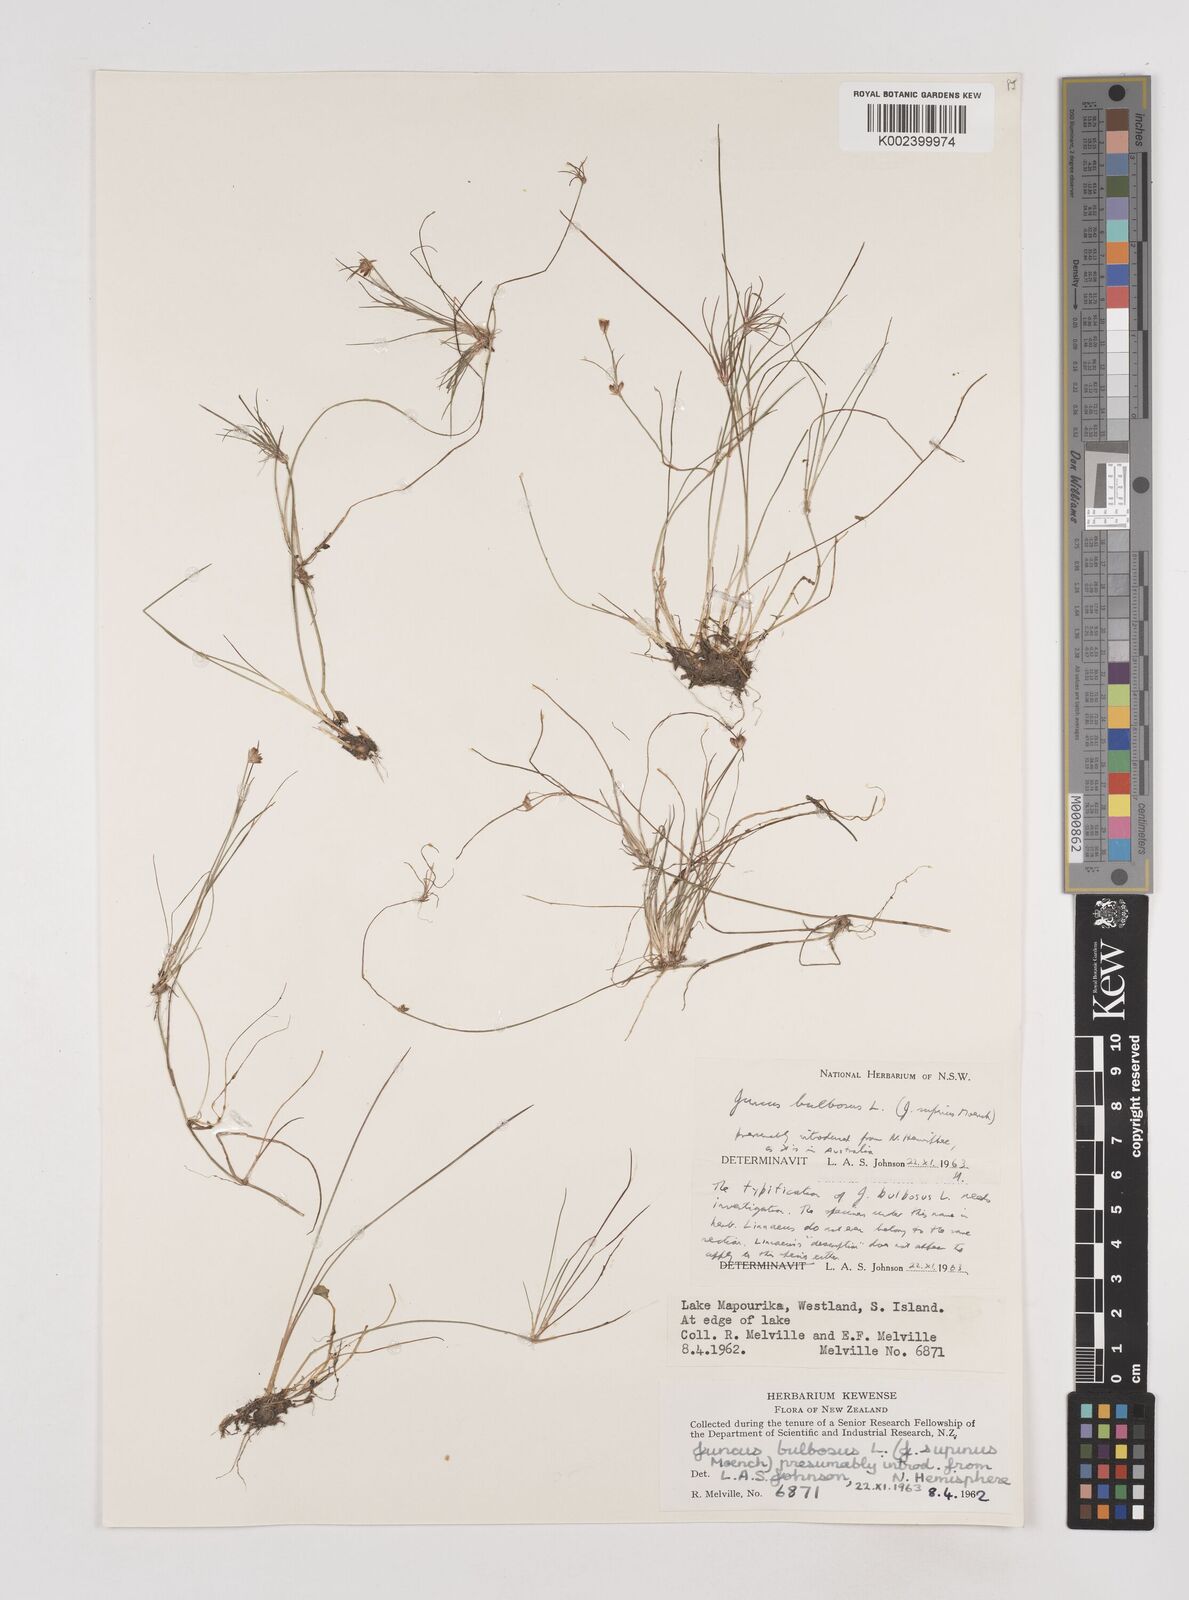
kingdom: Plantae
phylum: Tracheophyta
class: Liliopsida
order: Poales
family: Juncaceae
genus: Juncus
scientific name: Juncus bulbosus
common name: Bulbous rush
